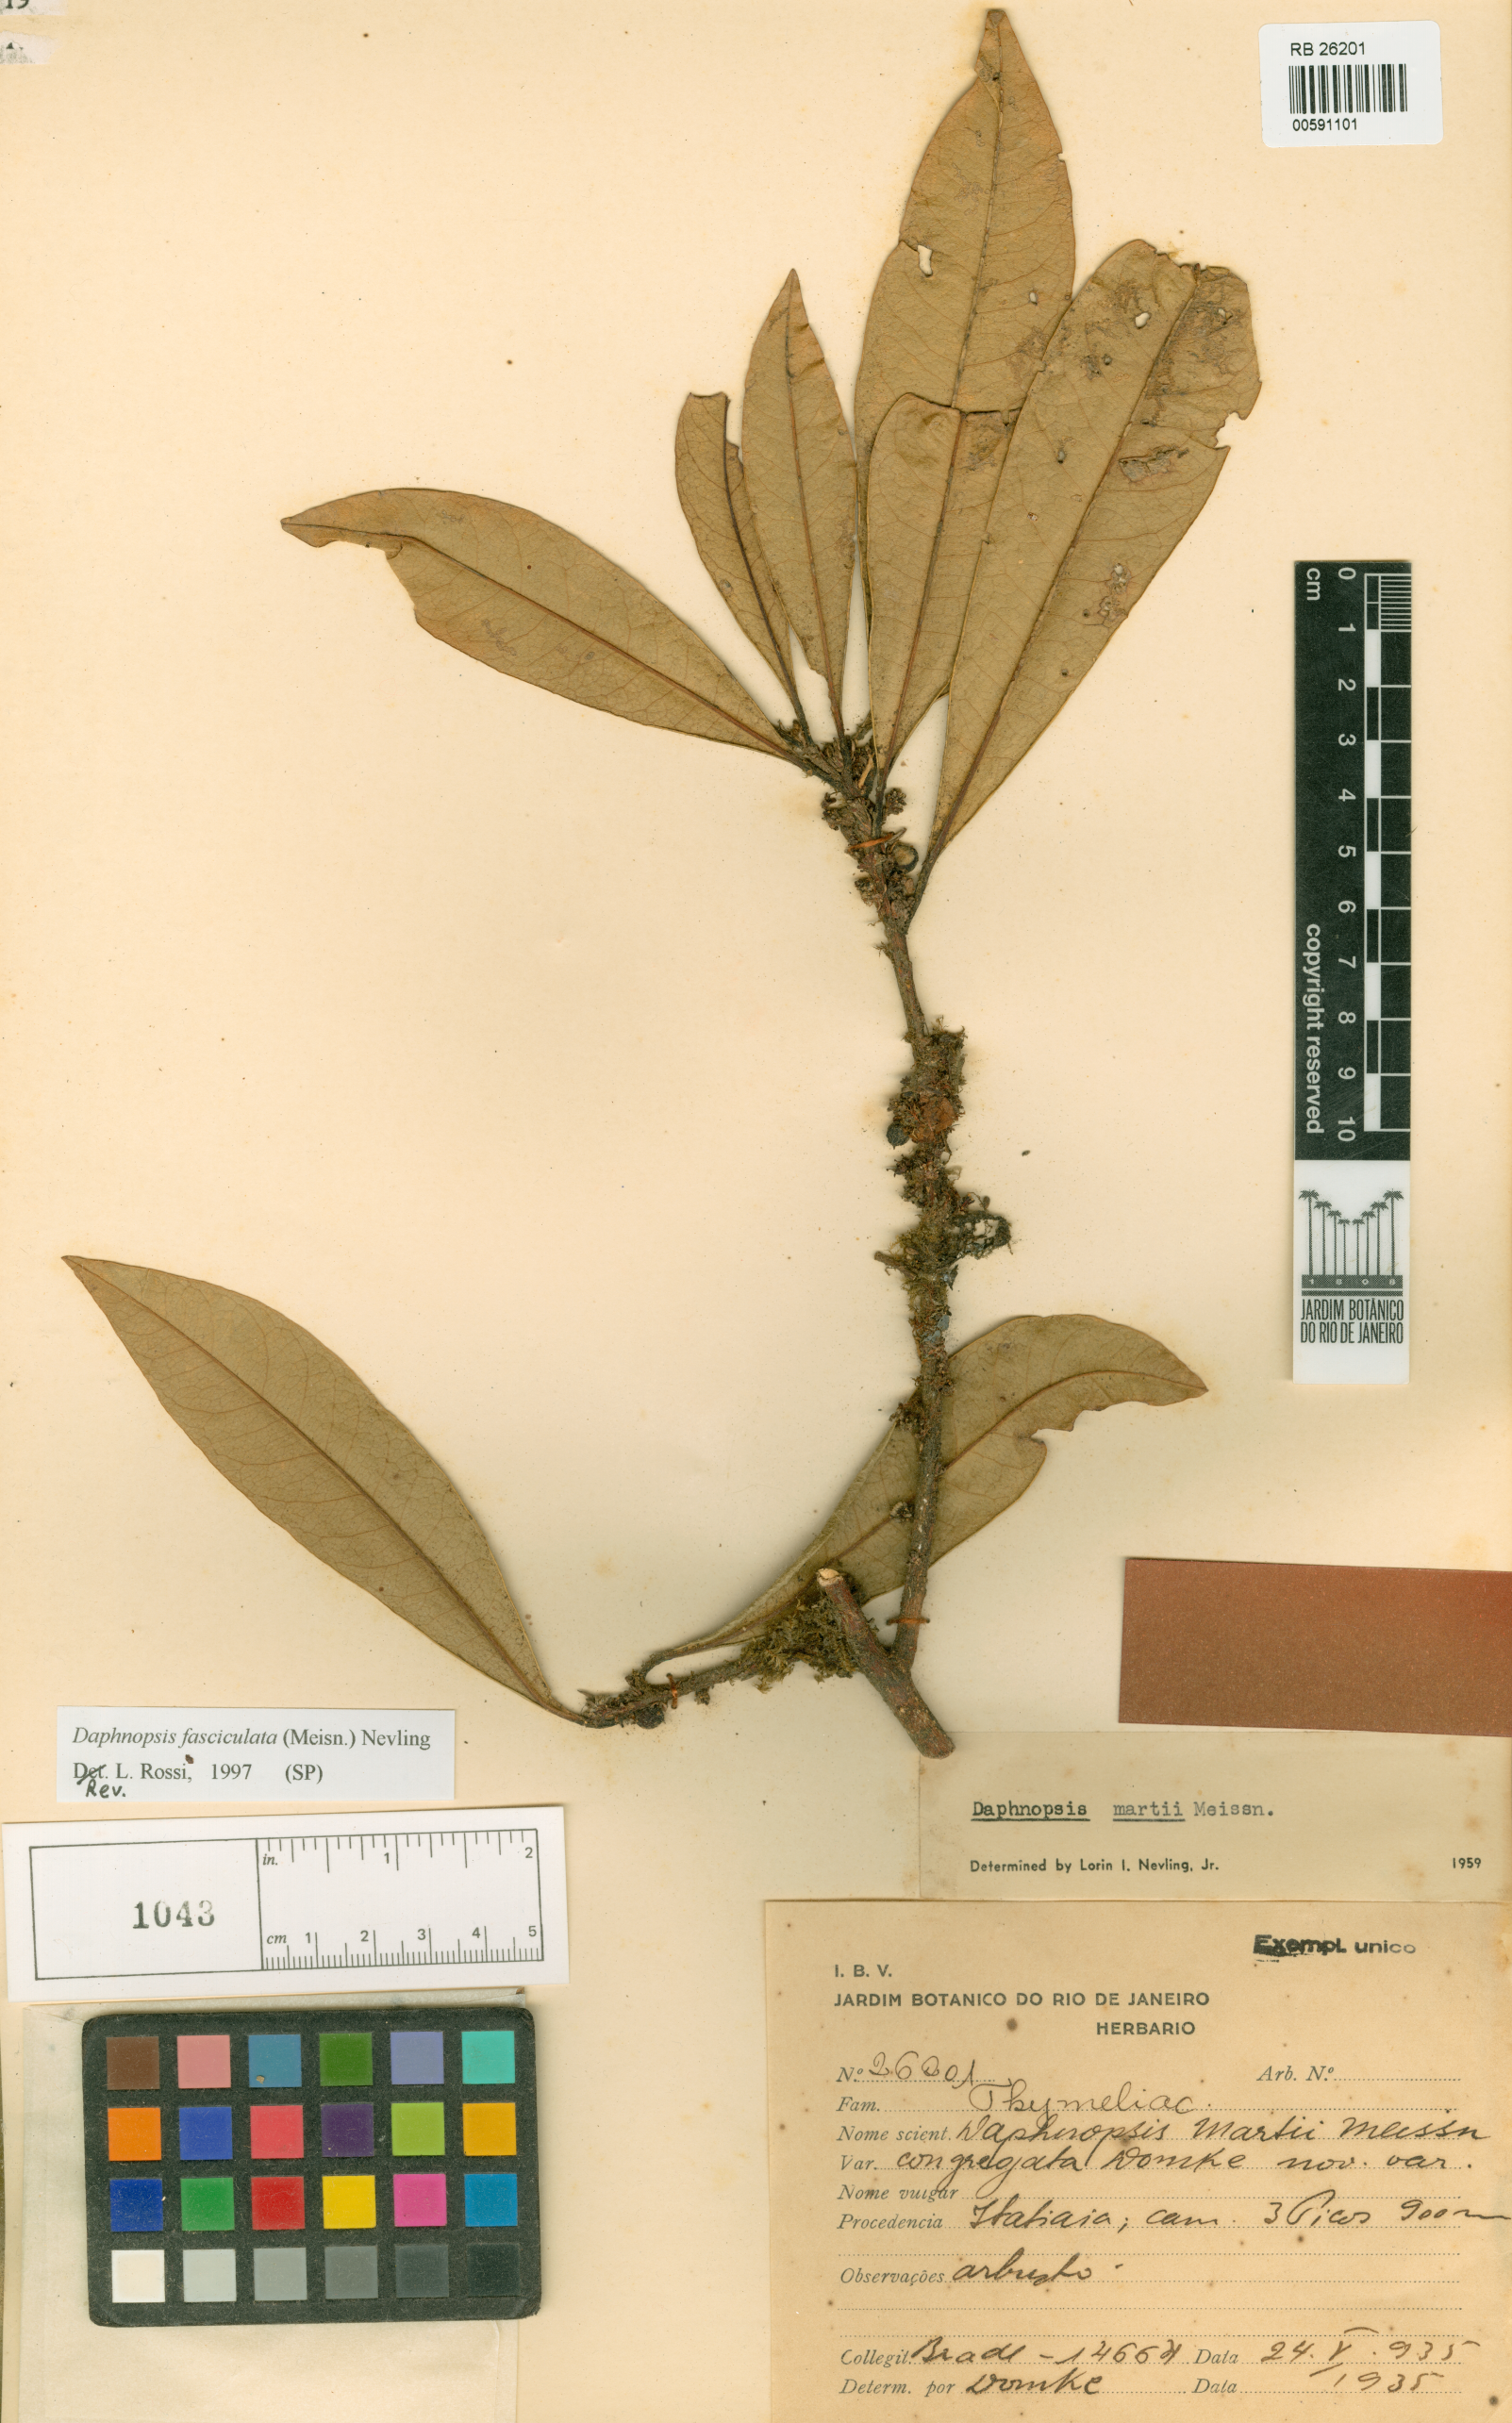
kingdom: Plantae
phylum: Tracheophyta
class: Magnoliopsida
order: Malvales
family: Thymelaeaceae
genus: Daphnopsis
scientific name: Daphnopsis martii
